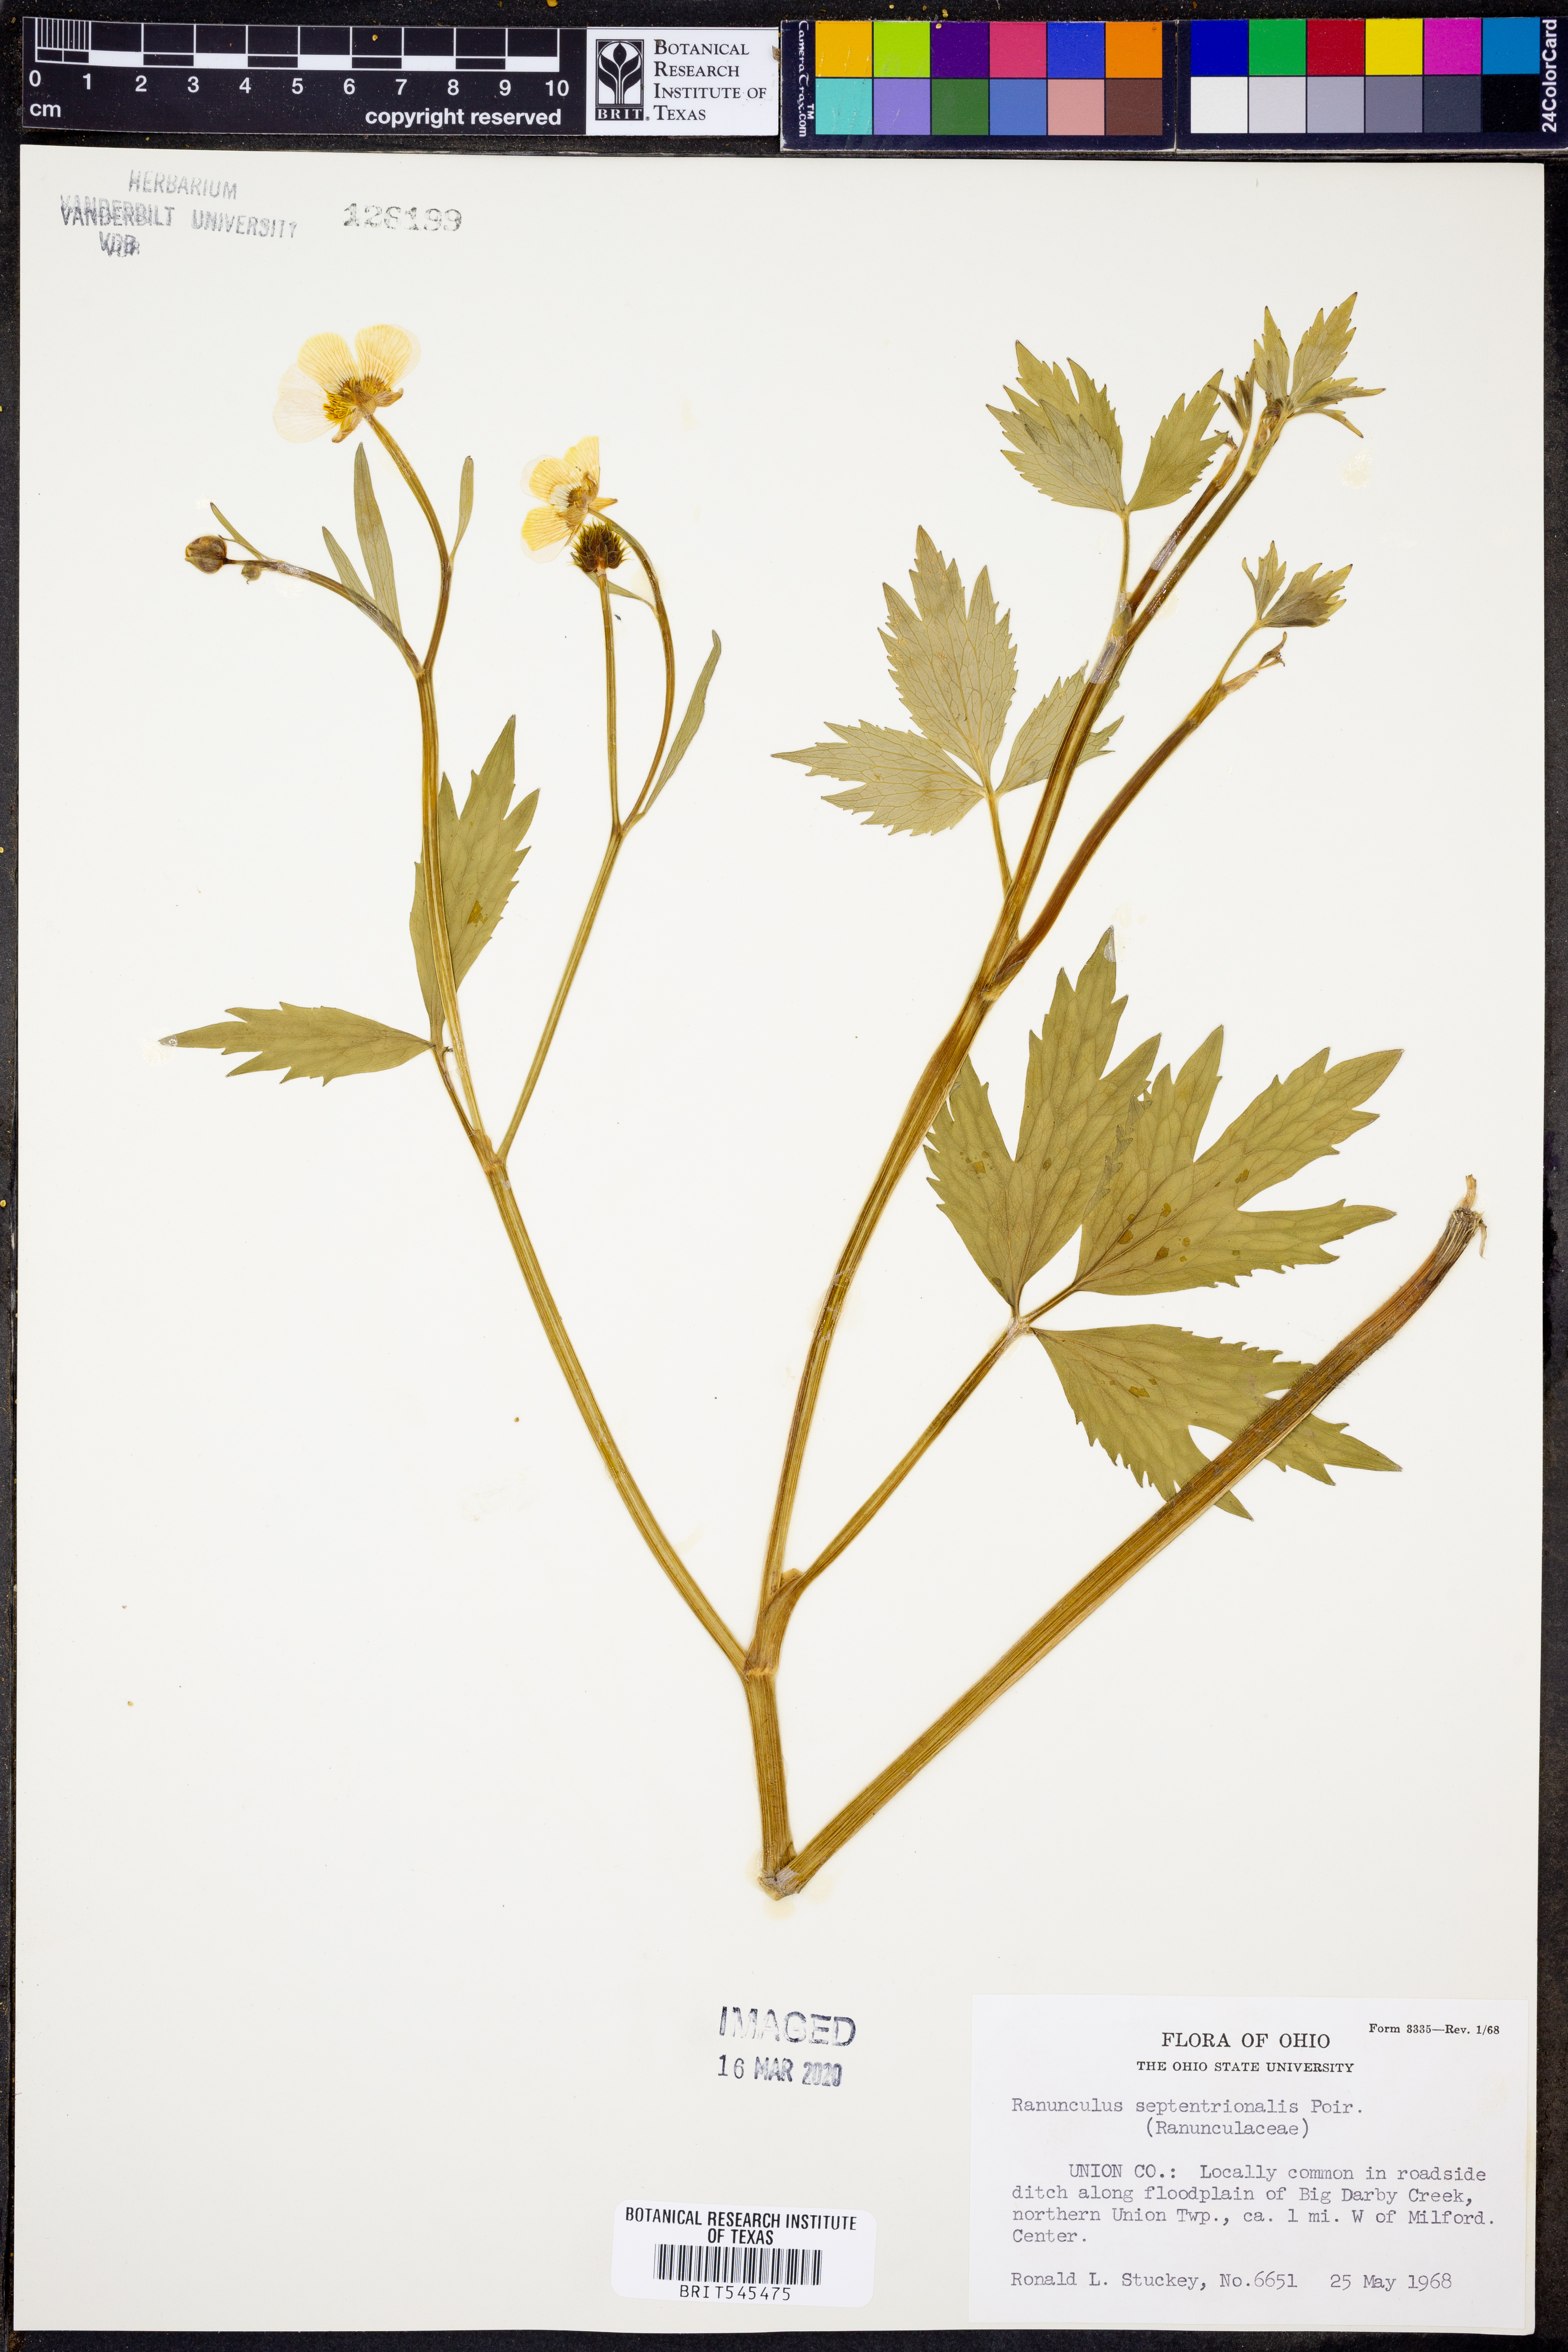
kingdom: Plantae
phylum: Tracheophyta
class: Magnoliopsida
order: Ranunculales
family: Ranunculaceae
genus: Ranunculus
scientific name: Ranunculus hispidus
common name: Bristly buttercup
